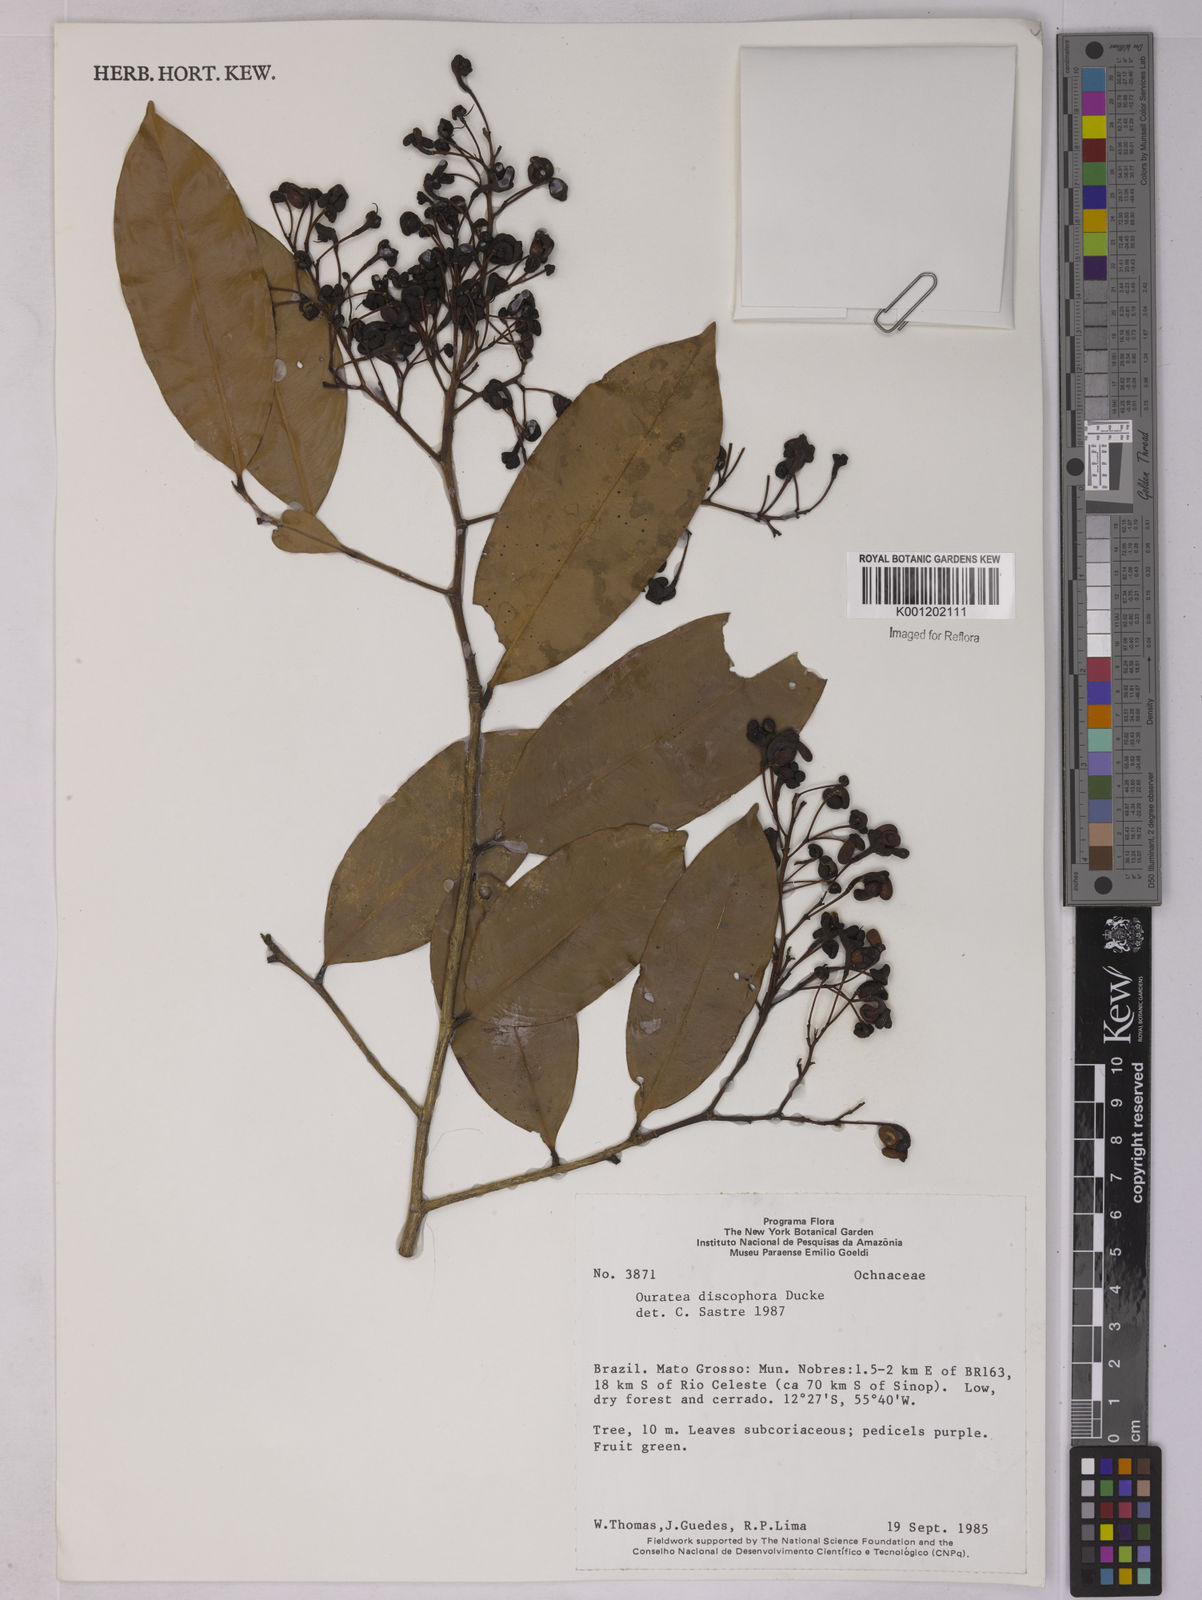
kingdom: Plantae
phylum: Tracheophyta
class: Magnoliopsida
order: Malpighiales
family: Ochnaceae
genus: Ouratea
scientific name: Ouratea discophora
